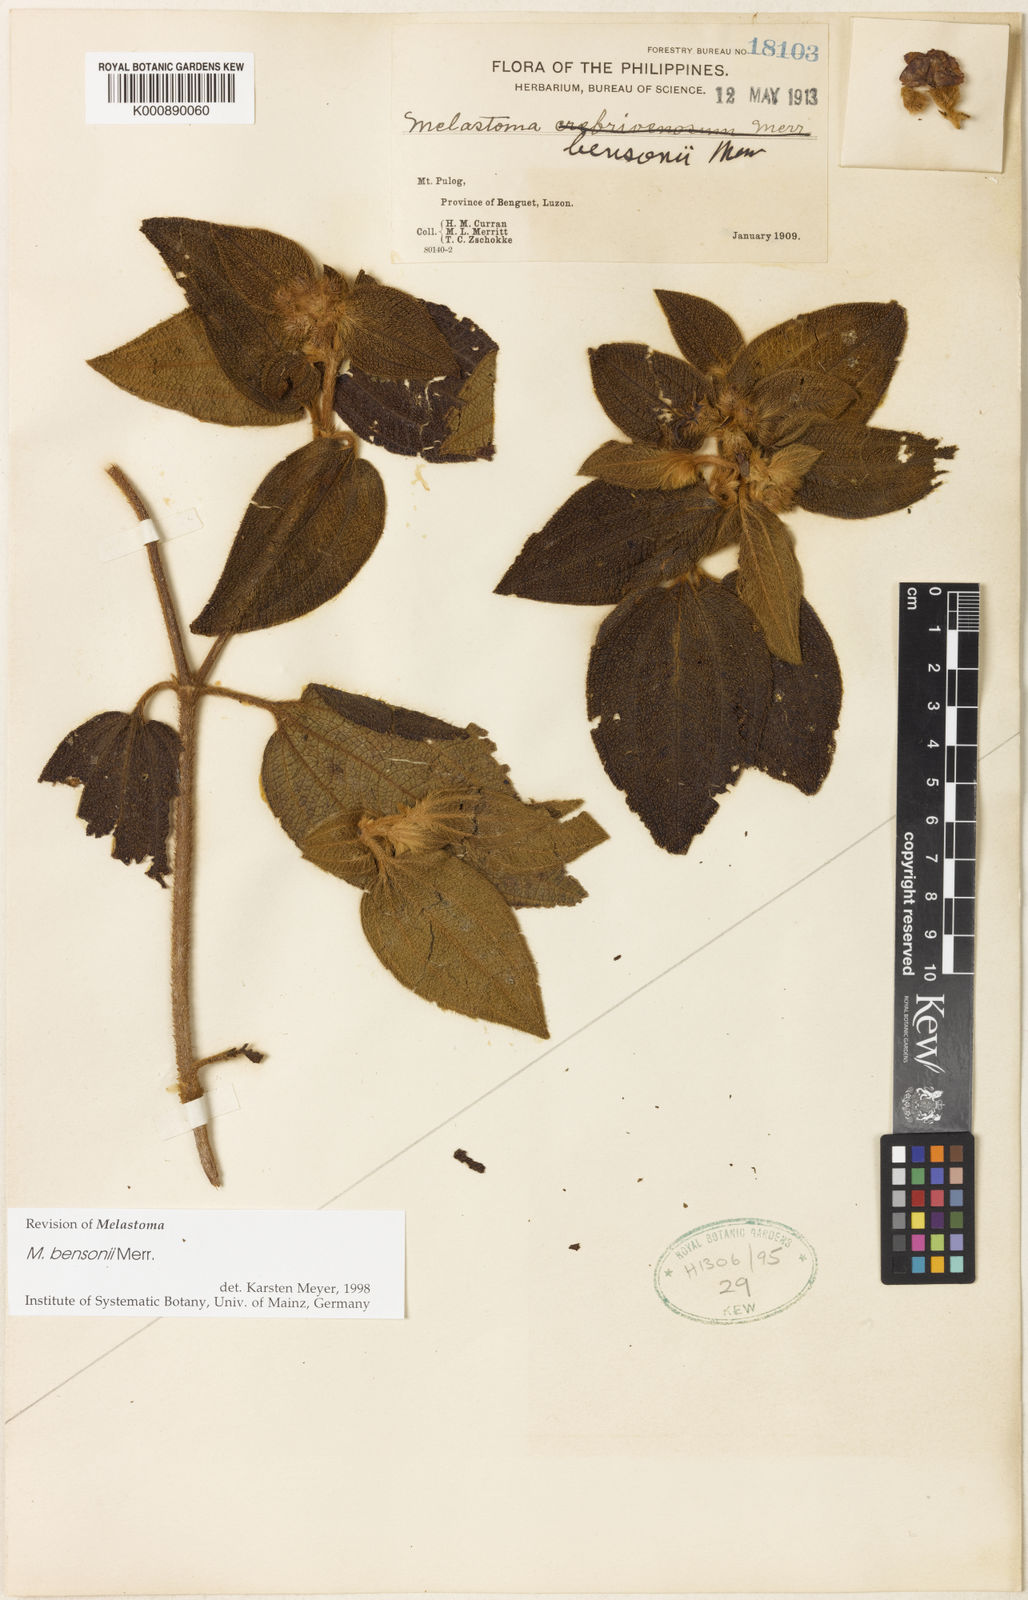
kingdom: Plantae
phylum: Tracheophyta
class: Magnoliopsida
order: Myrtales
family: Melastomataceae
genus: Melastoma
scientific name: Melastoma bensonii
